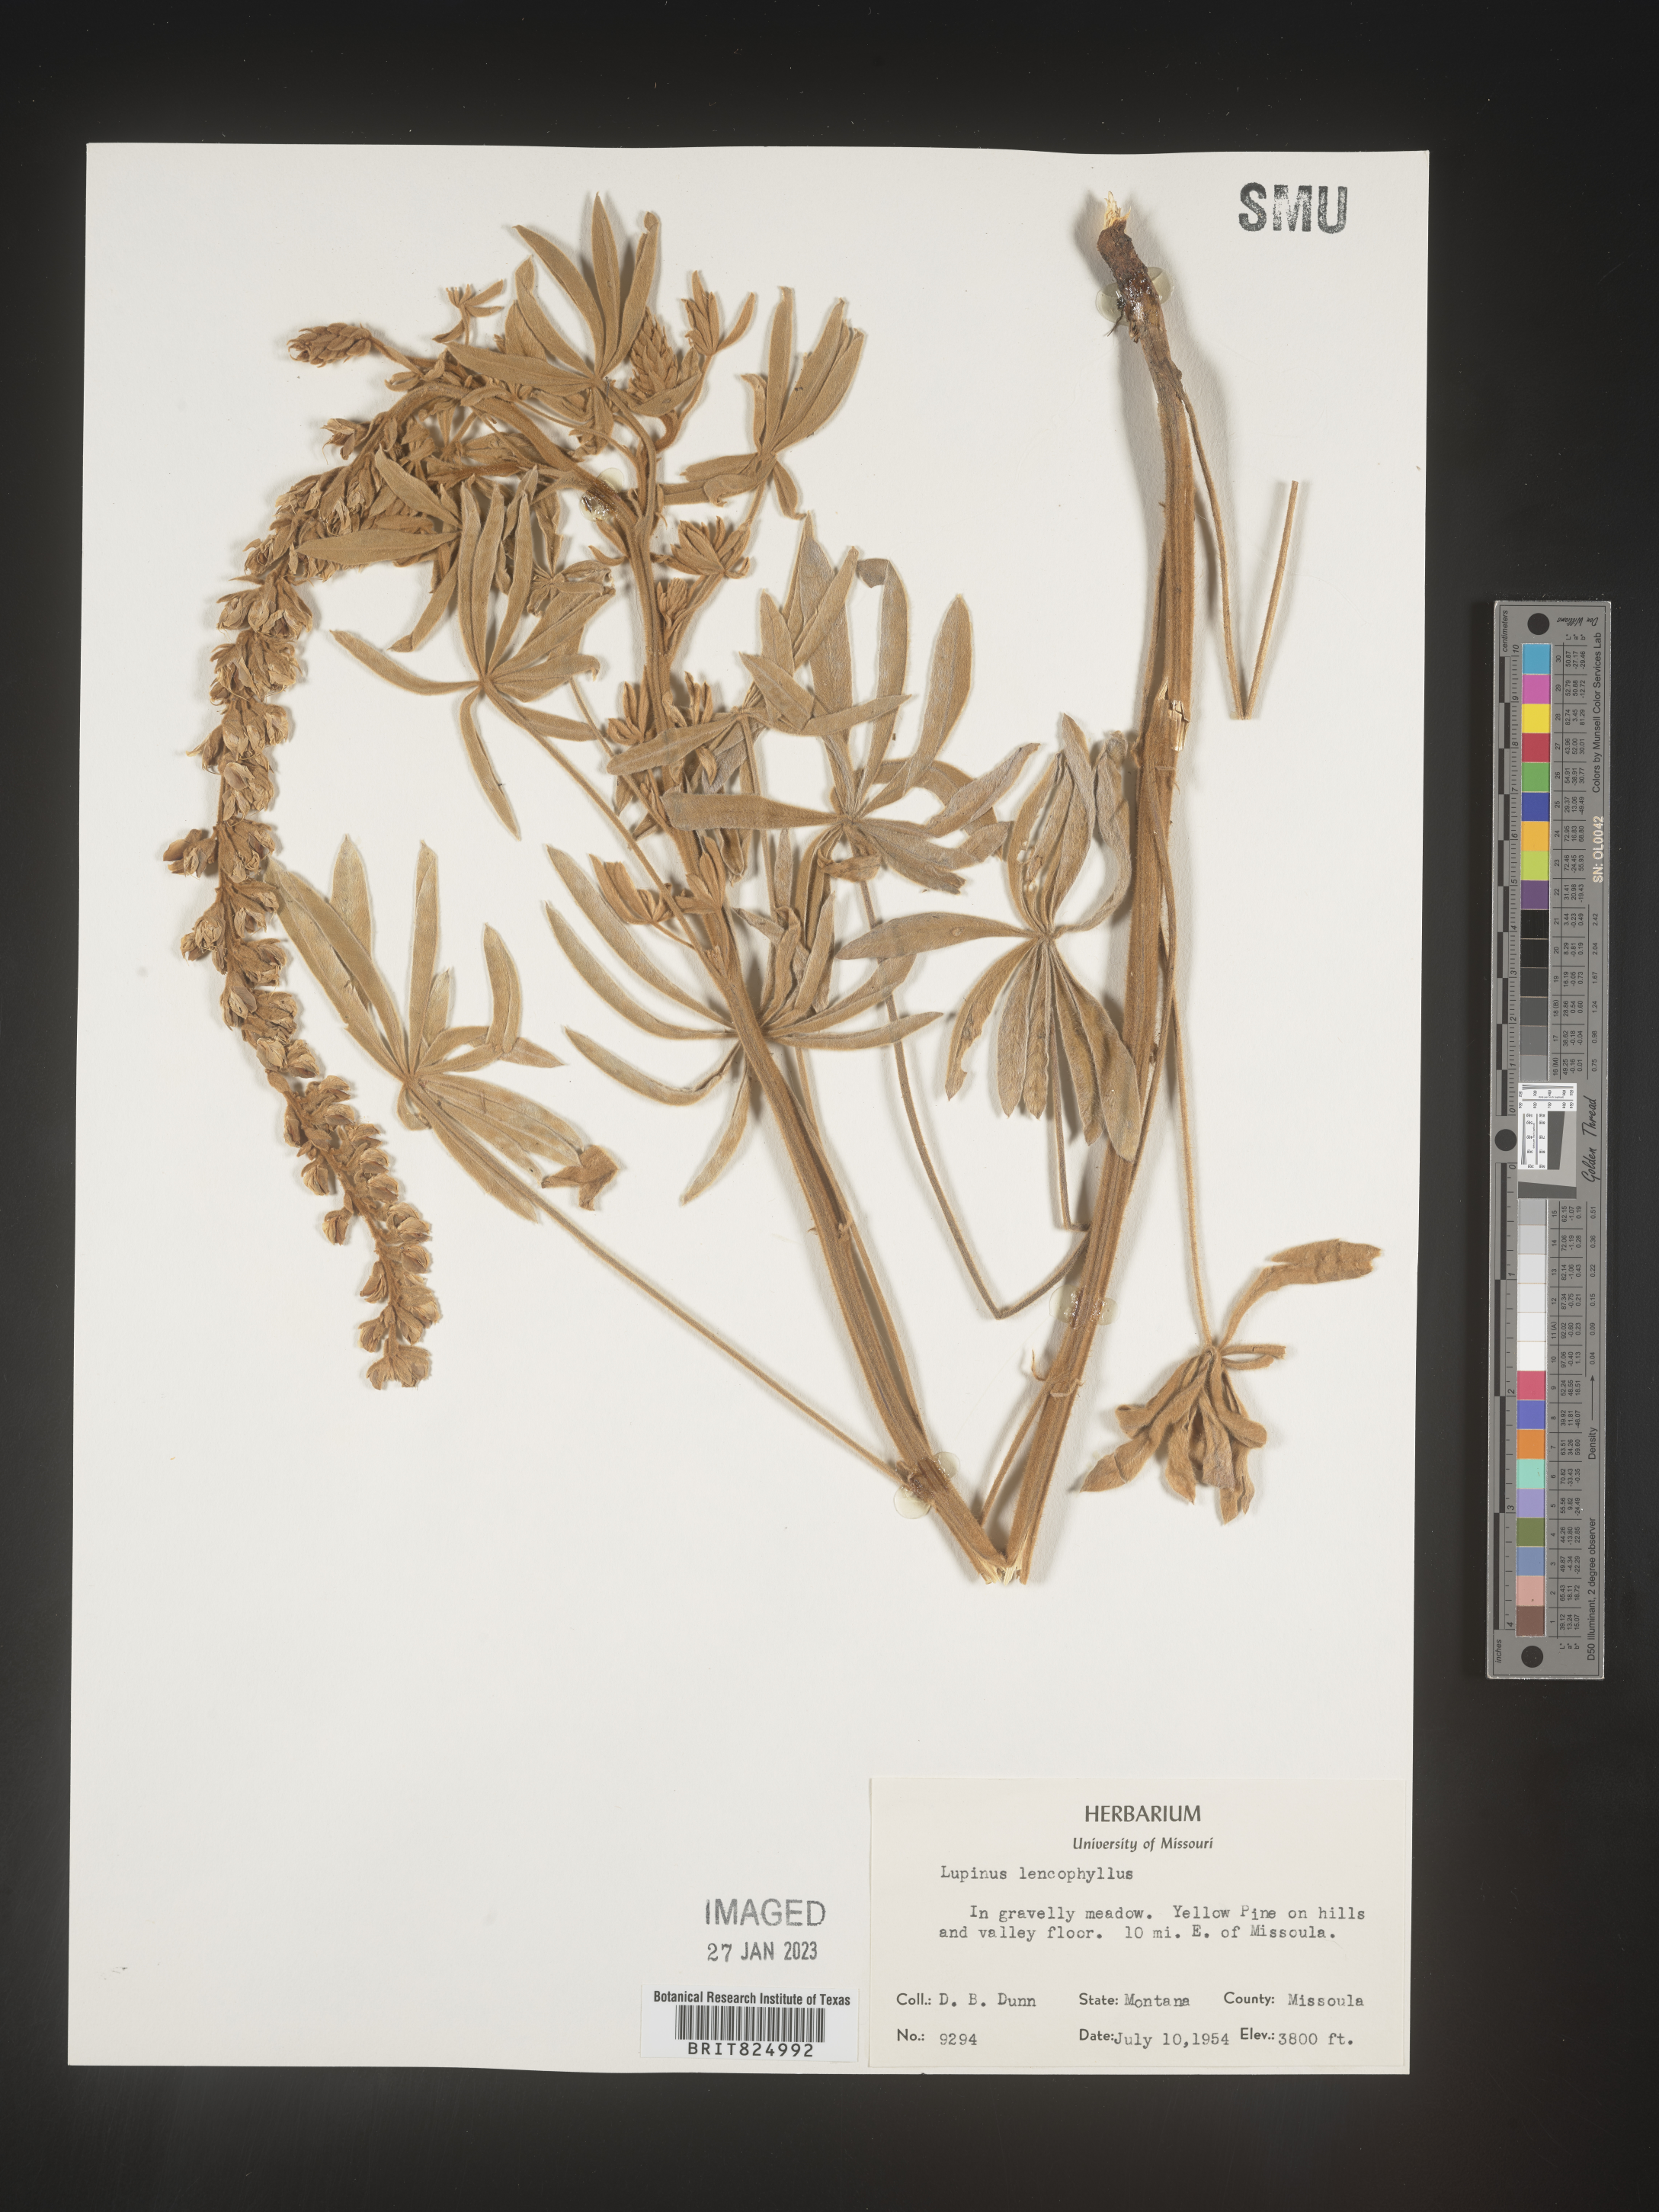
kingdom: Plantae
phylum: Tracheophyta
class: Magnoliopsida
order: Fabales
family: Fabaceae
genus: Lupinus
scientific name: Lupinus
